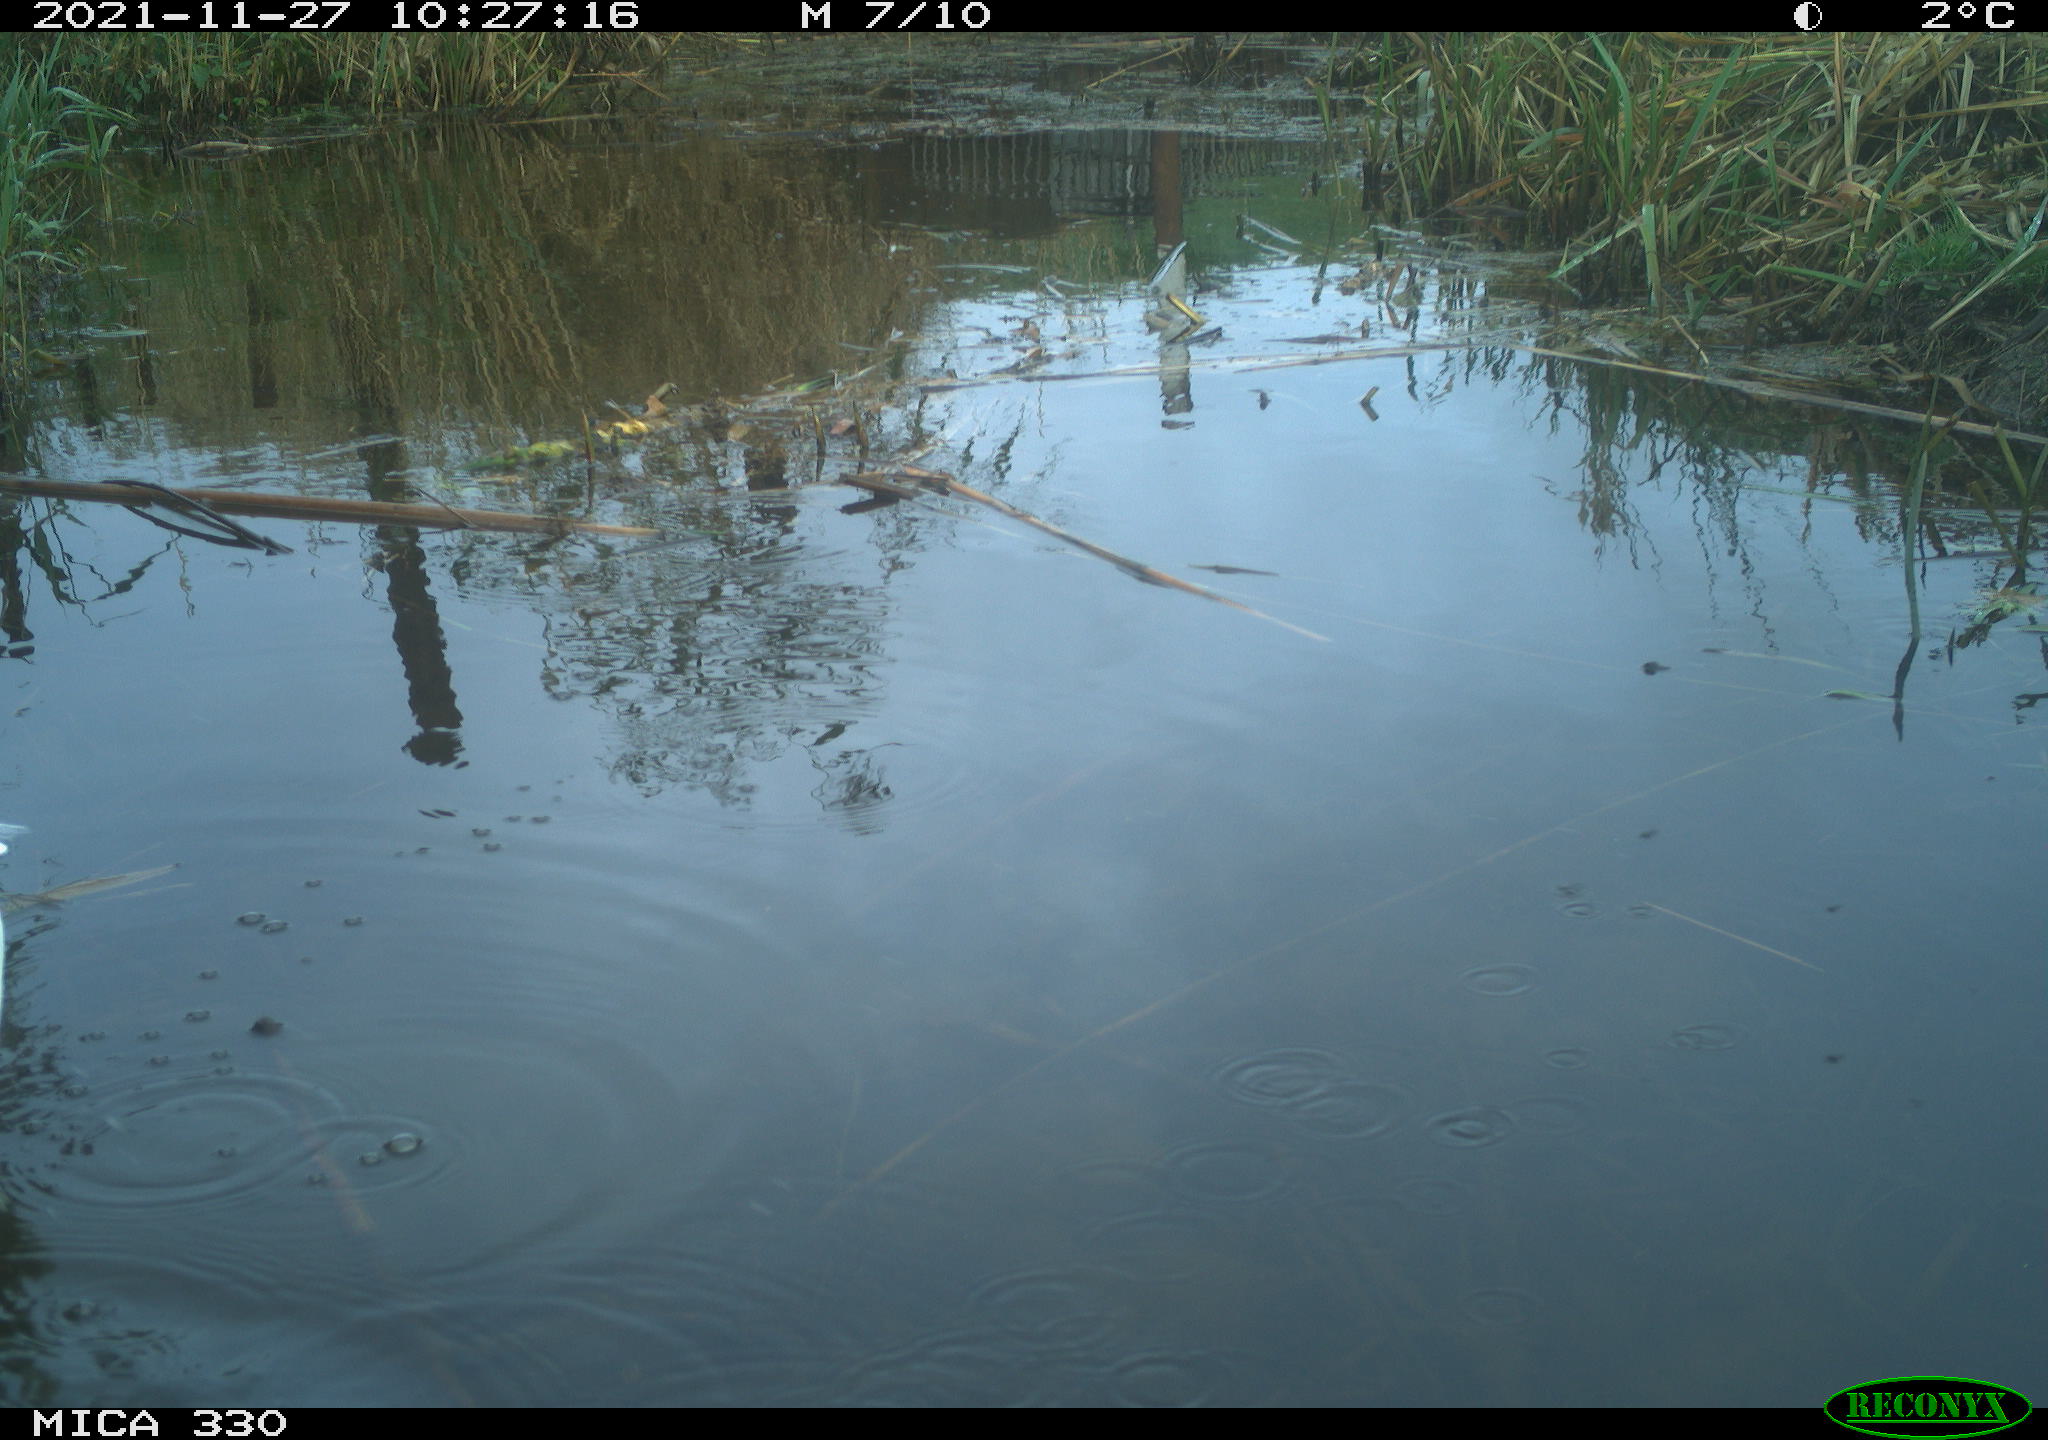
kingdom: Animalia
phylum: Chordata
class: Aves
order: Pelecaniformes
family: Ardeidae
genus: Ardea
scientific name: Ardea alba
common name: Great egret
